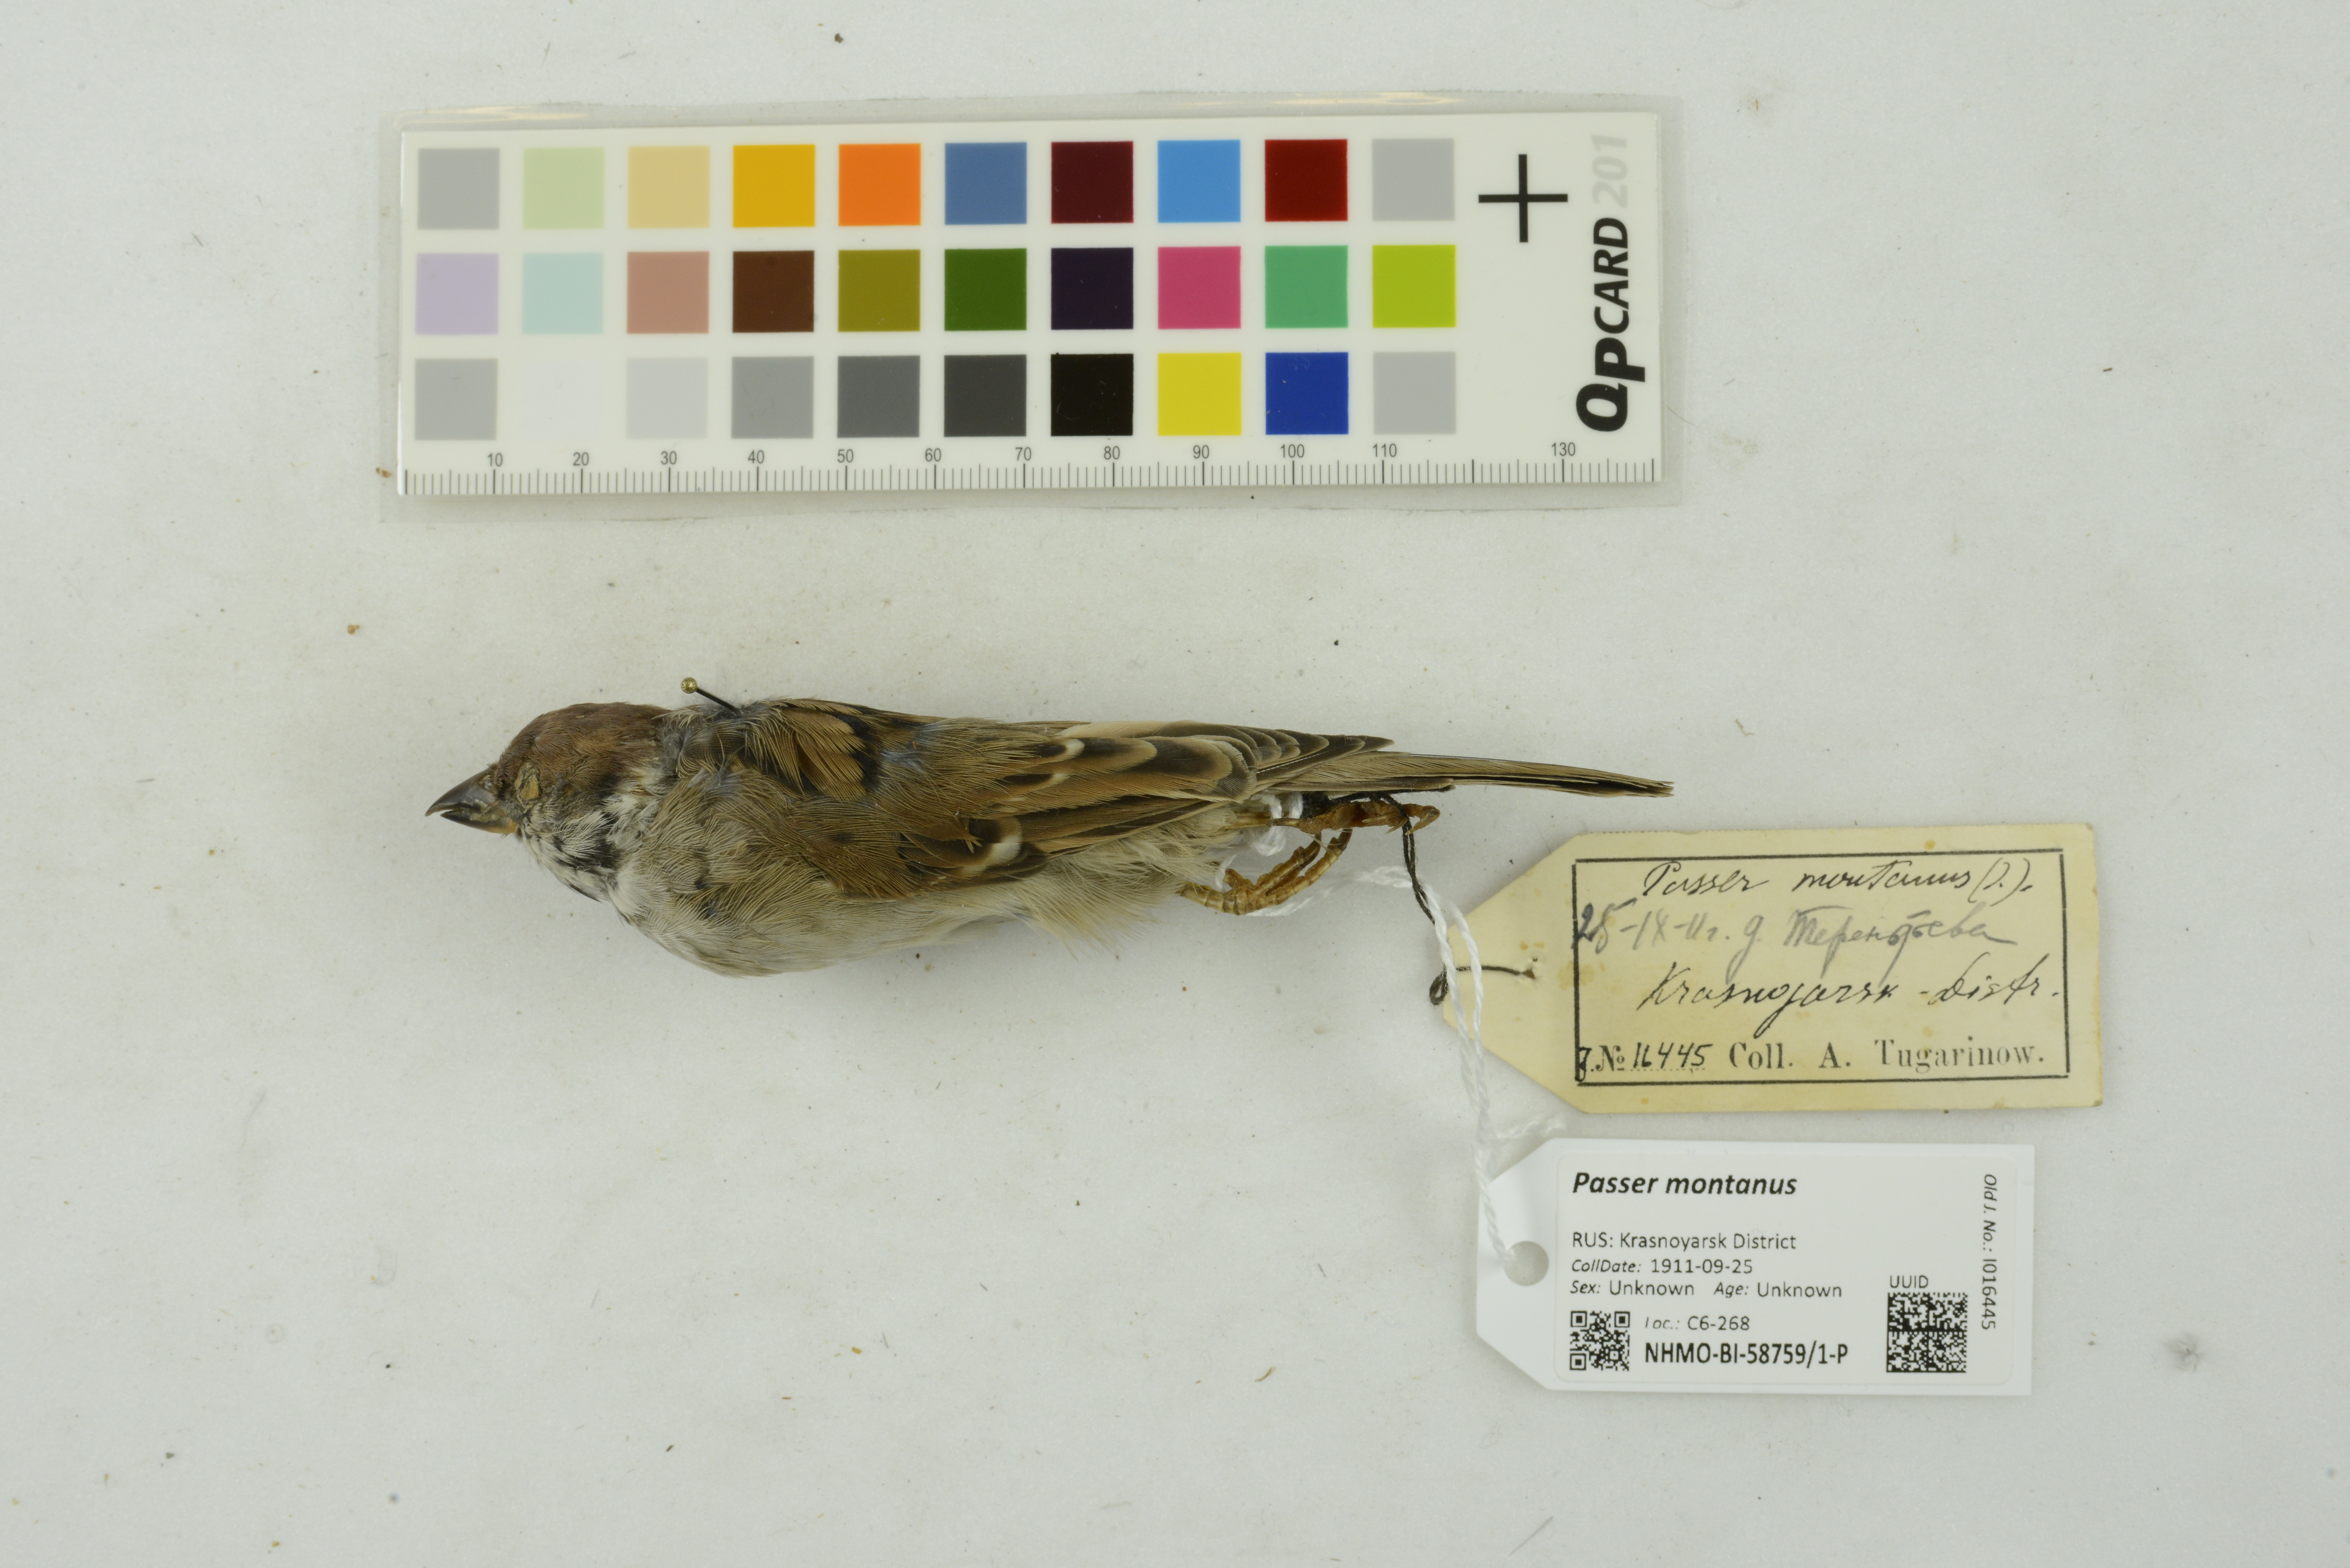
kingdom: Animalia
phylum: Chordata
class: Aves
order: Passeriformes
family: Passeridae
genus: Passer
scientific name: Passer montanus
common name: Eurasian tree sparrow
